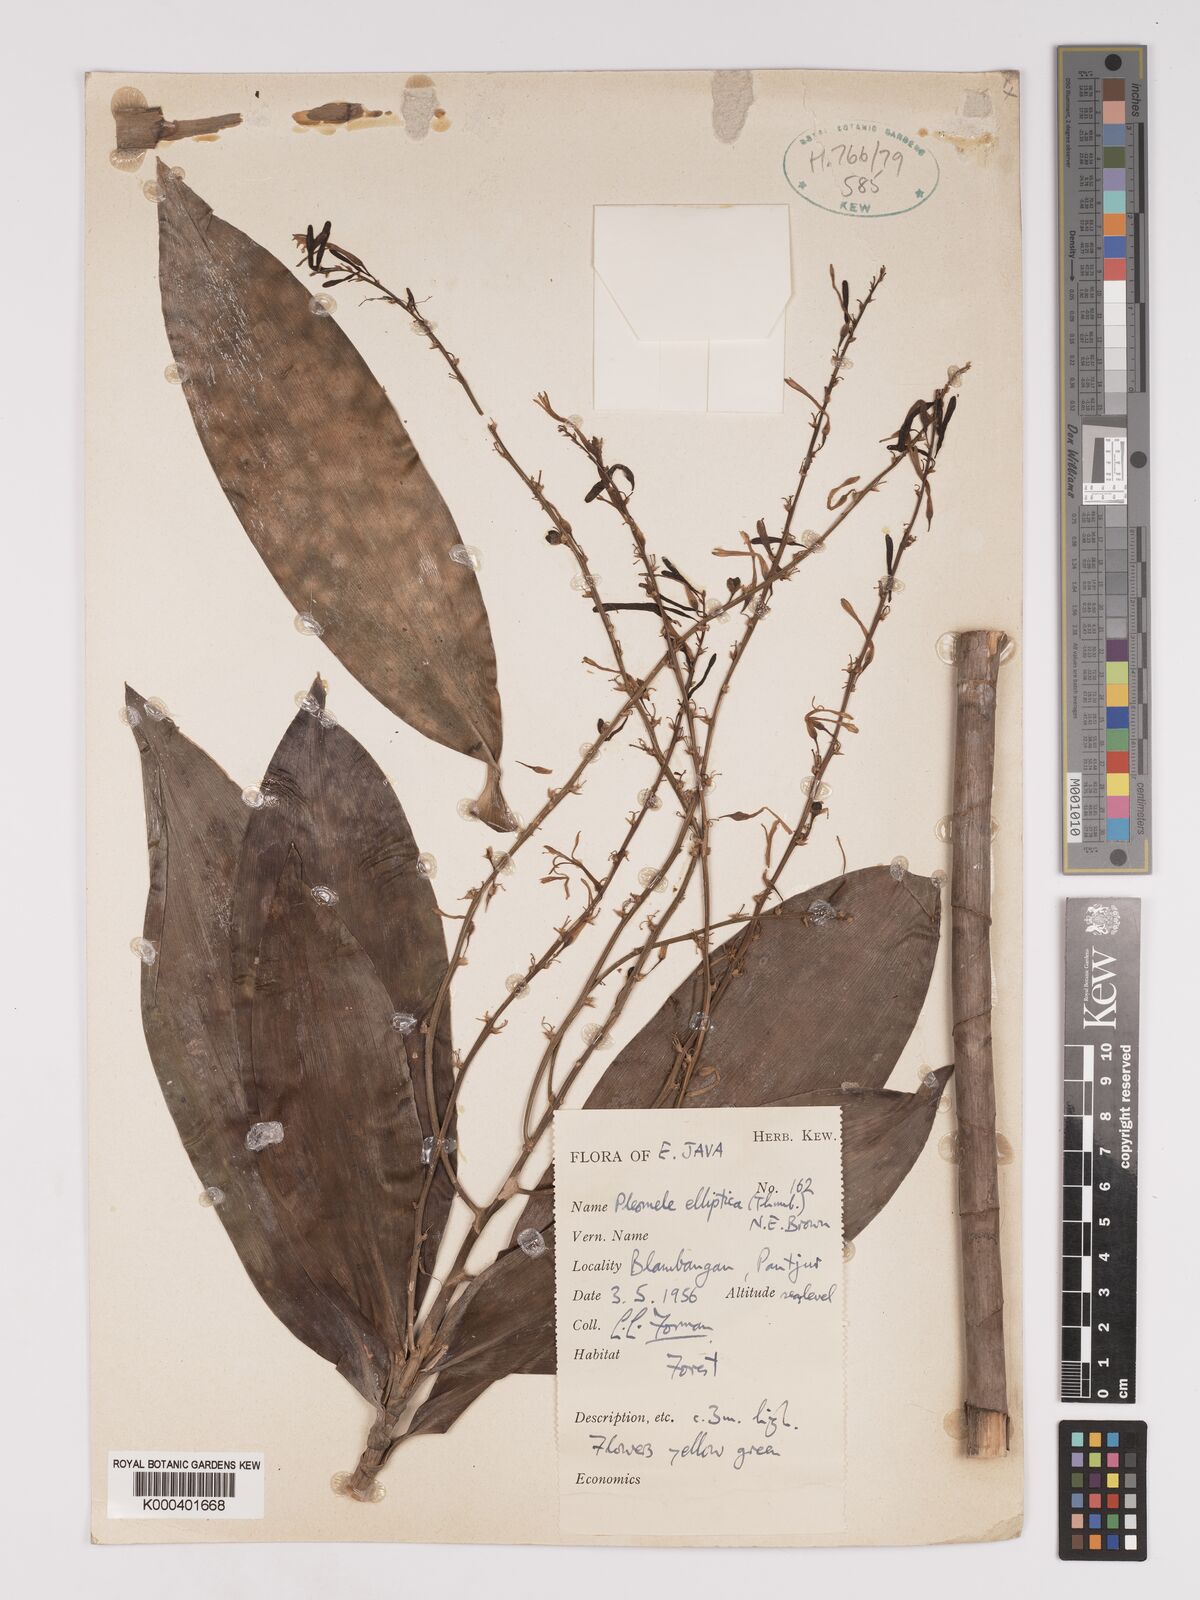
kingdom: Plantae
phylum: Tracheophyta
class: Liliopsida
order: Asparagales
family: Asparagaceae
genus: Dracaena
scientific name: Dracaena elliptica
